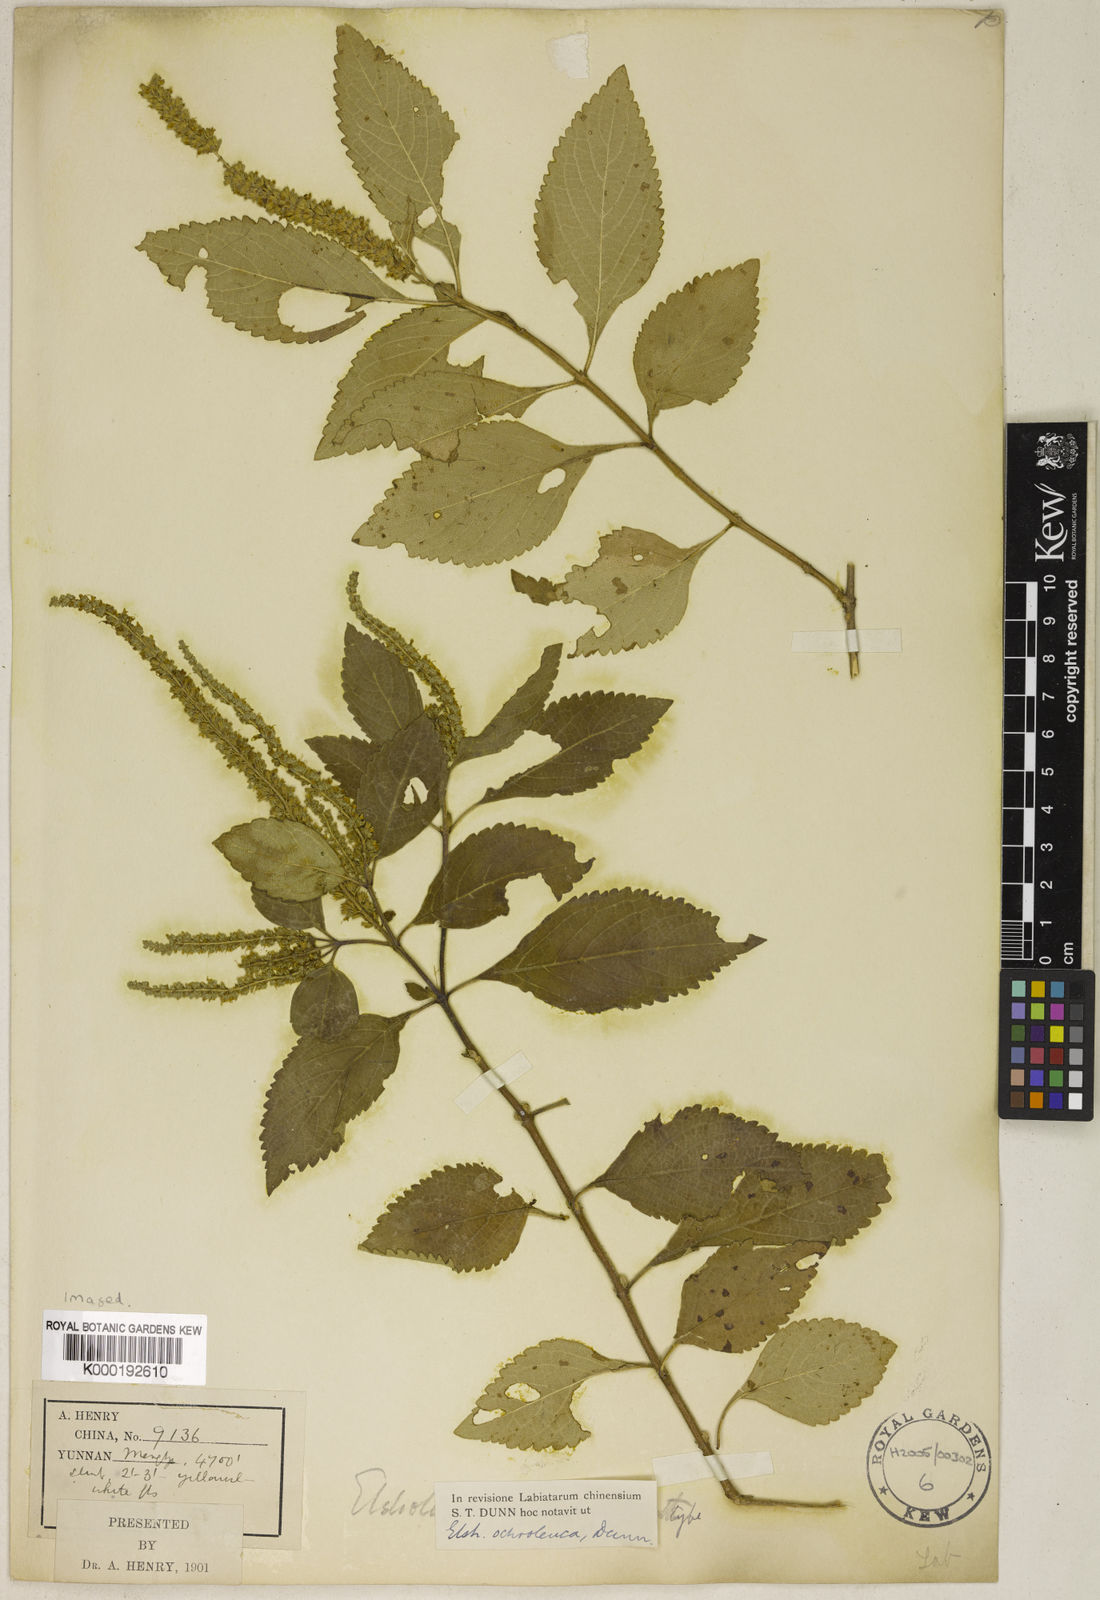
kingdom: Plantae
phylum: Tracheophyta
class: Magnoliopsida
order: Lamiales
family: Lamiaceae
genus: Elsholtzia
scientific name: Elsholtzia ochroleuca
